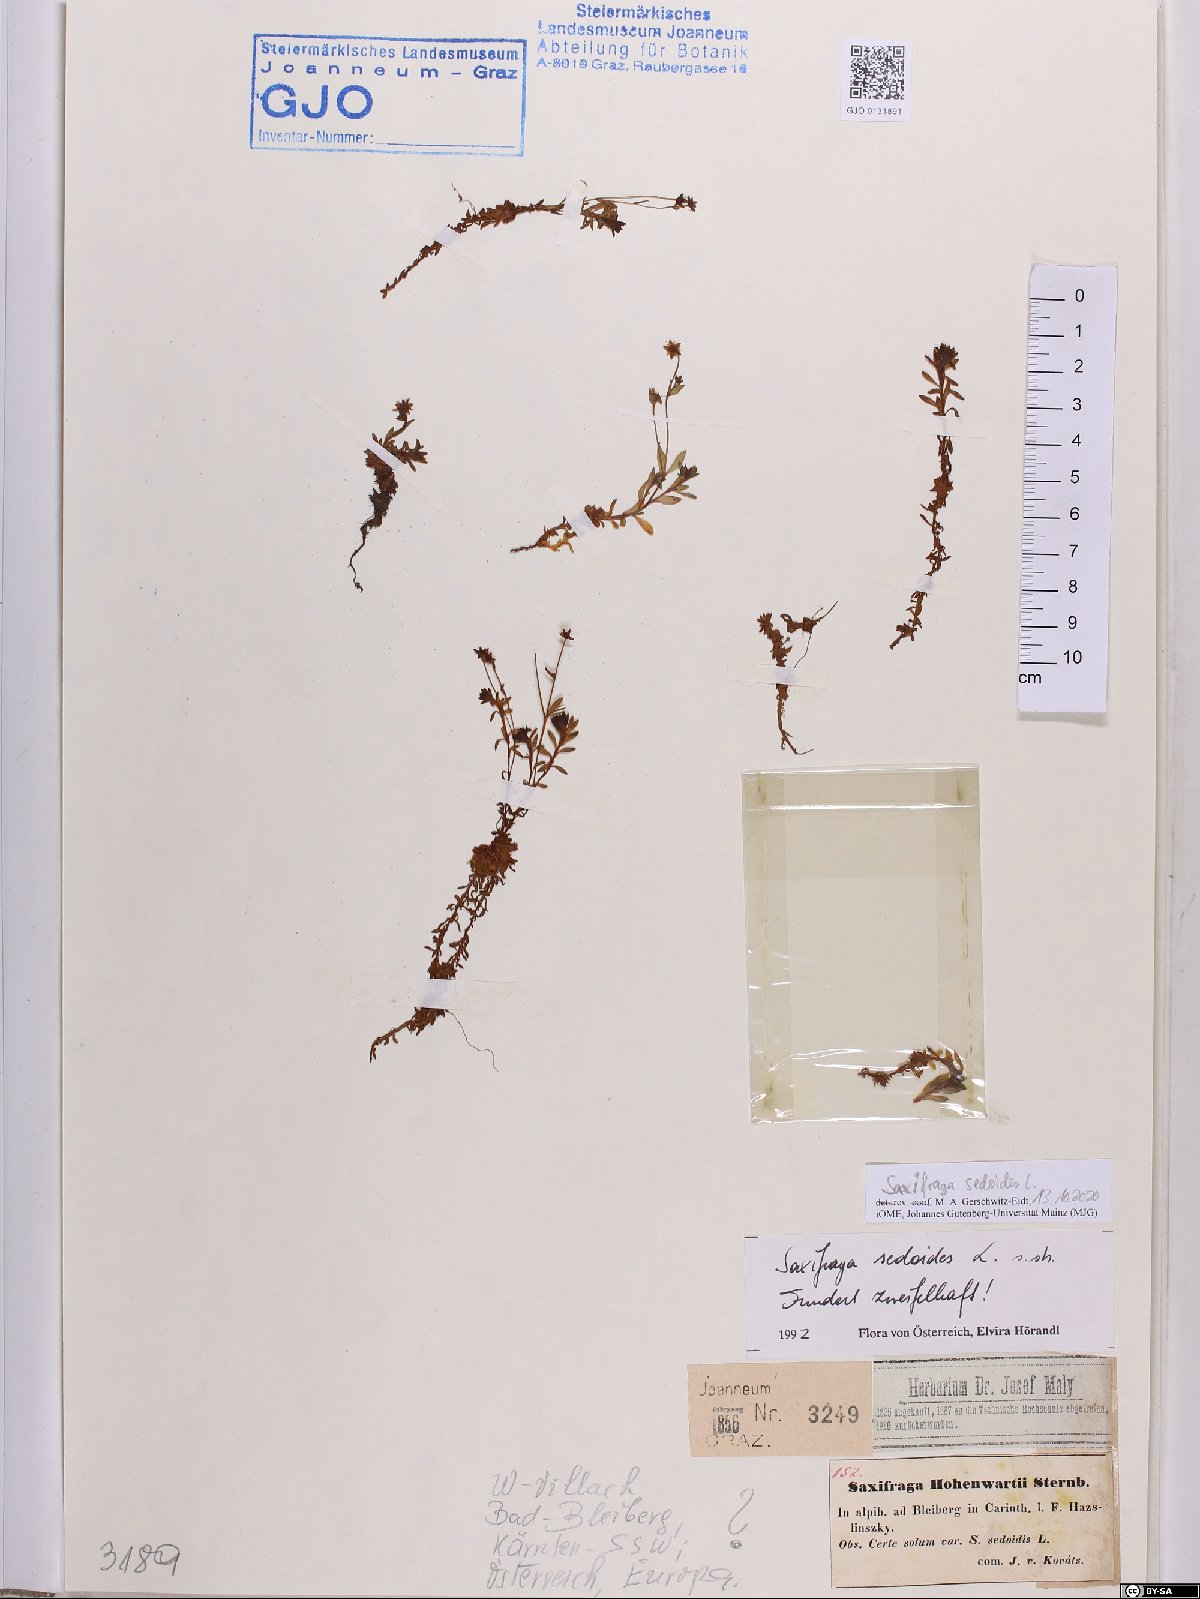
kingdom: Plantae
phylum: Tracheophyta
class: Magnoliopsida
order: Saxifragales
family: Saxifragaceae
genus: Saxifraga
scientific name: Saxifraga sedoides
